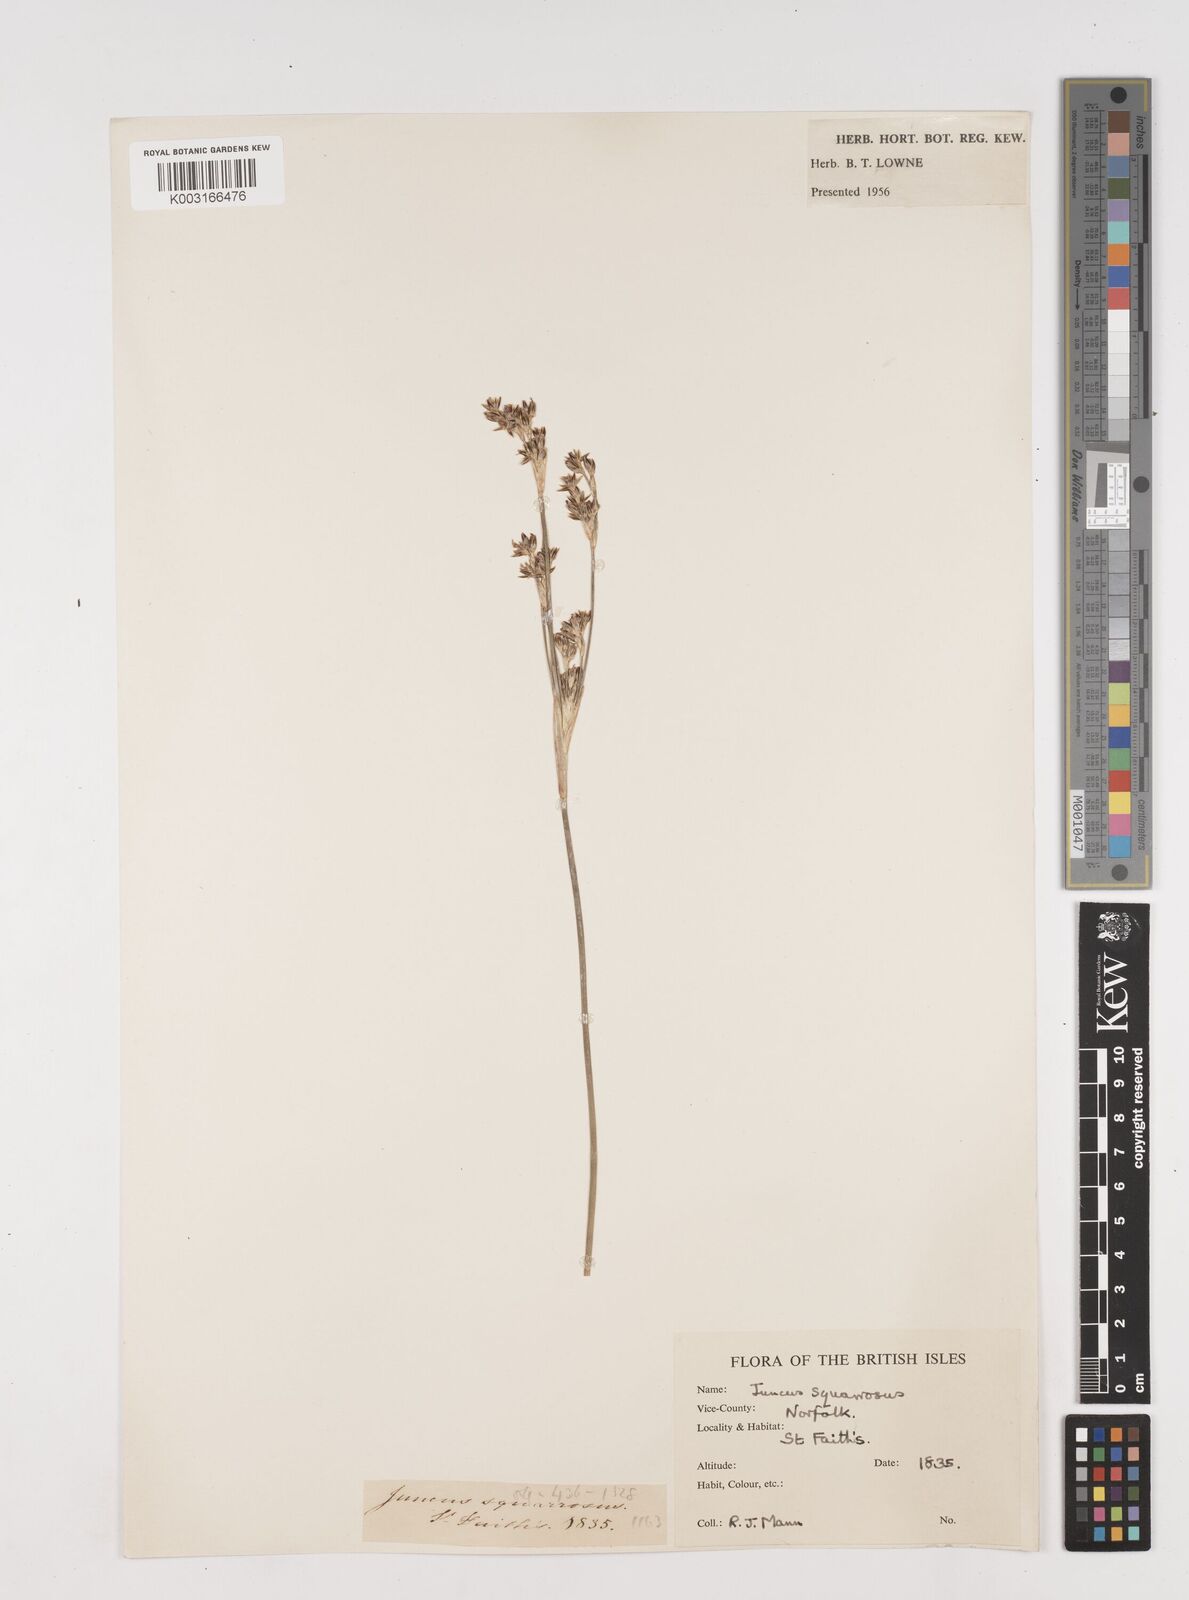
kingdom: Plantae
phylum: Tracheophyta
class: Liliopsida
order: Poales
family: Juncaceae
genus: Juncus
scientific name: Juncus squarrosus
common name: Heath rush
